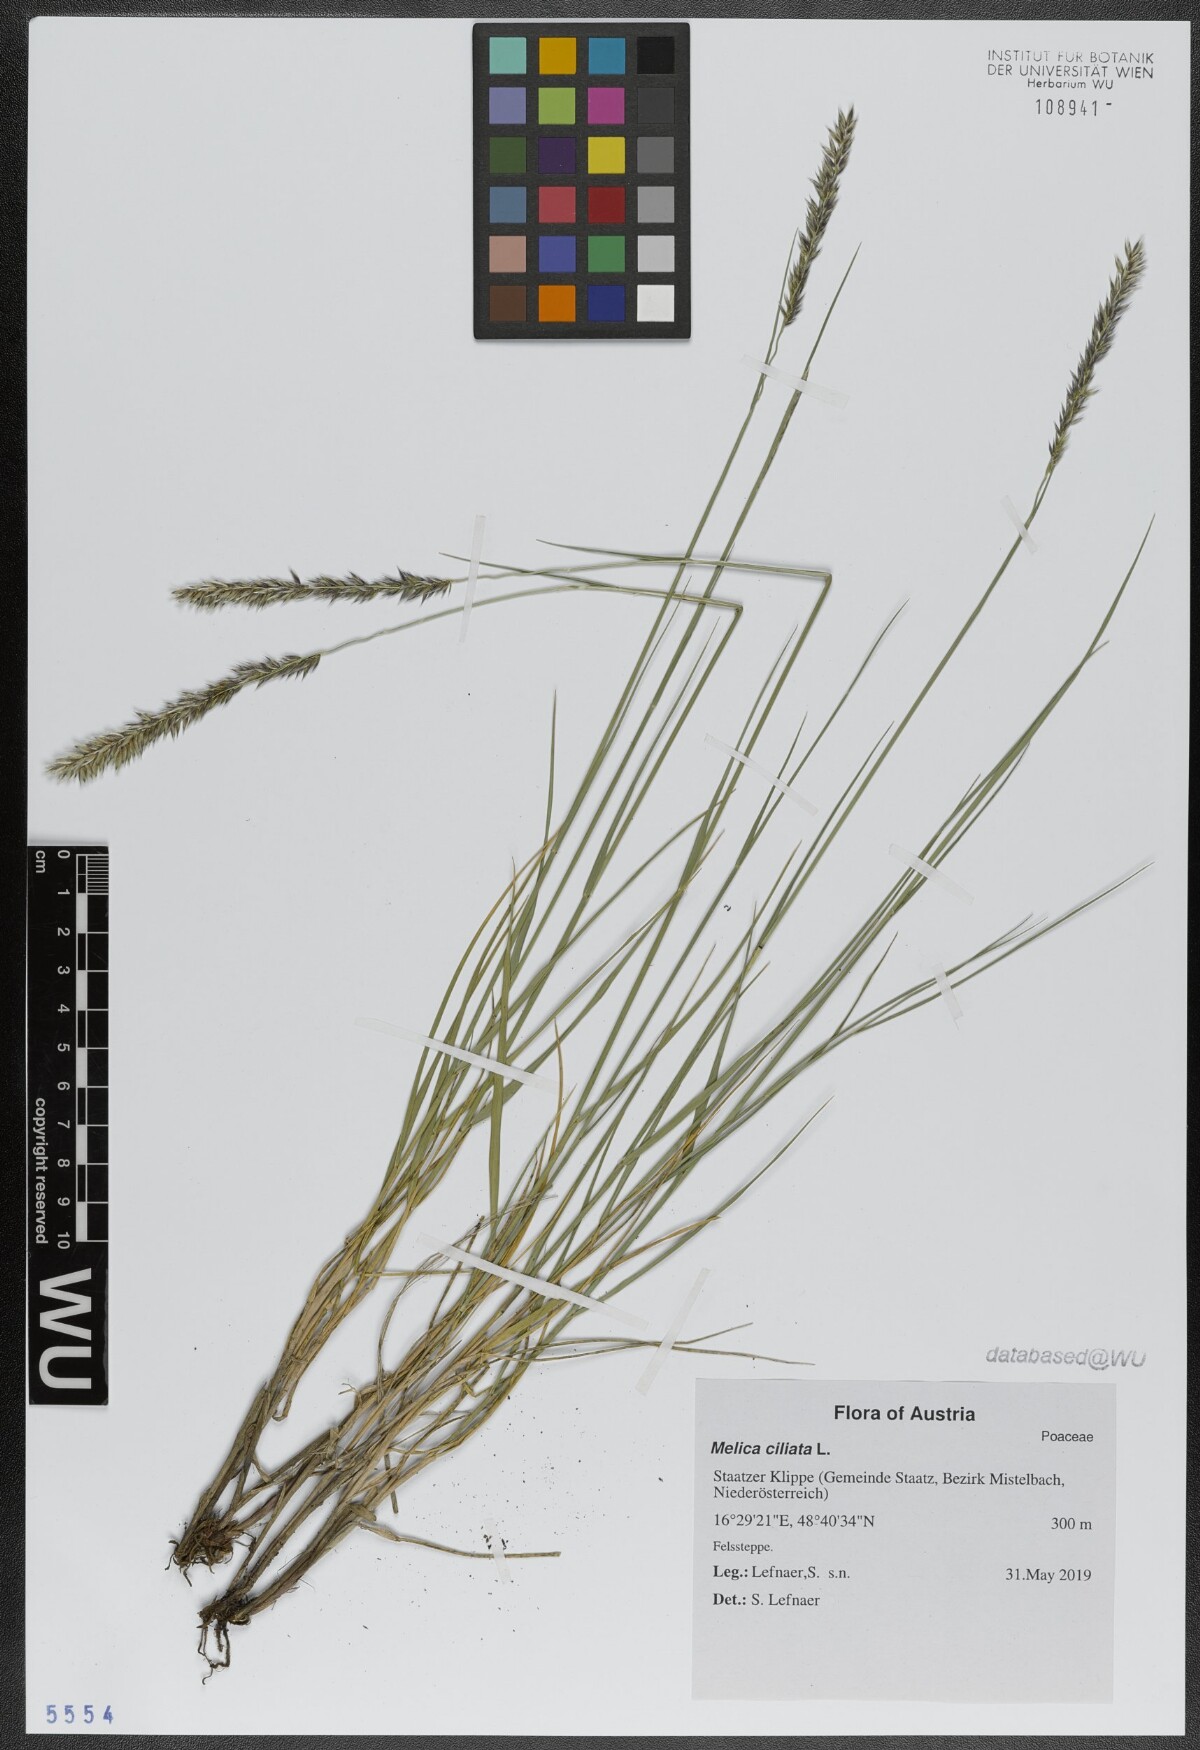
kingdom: Plantae
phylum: Tracheophyta
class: Liliopsida
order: Poales
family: Poaceae
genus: Melica
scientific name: Melica ciliata
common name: Hairy melicgrass
